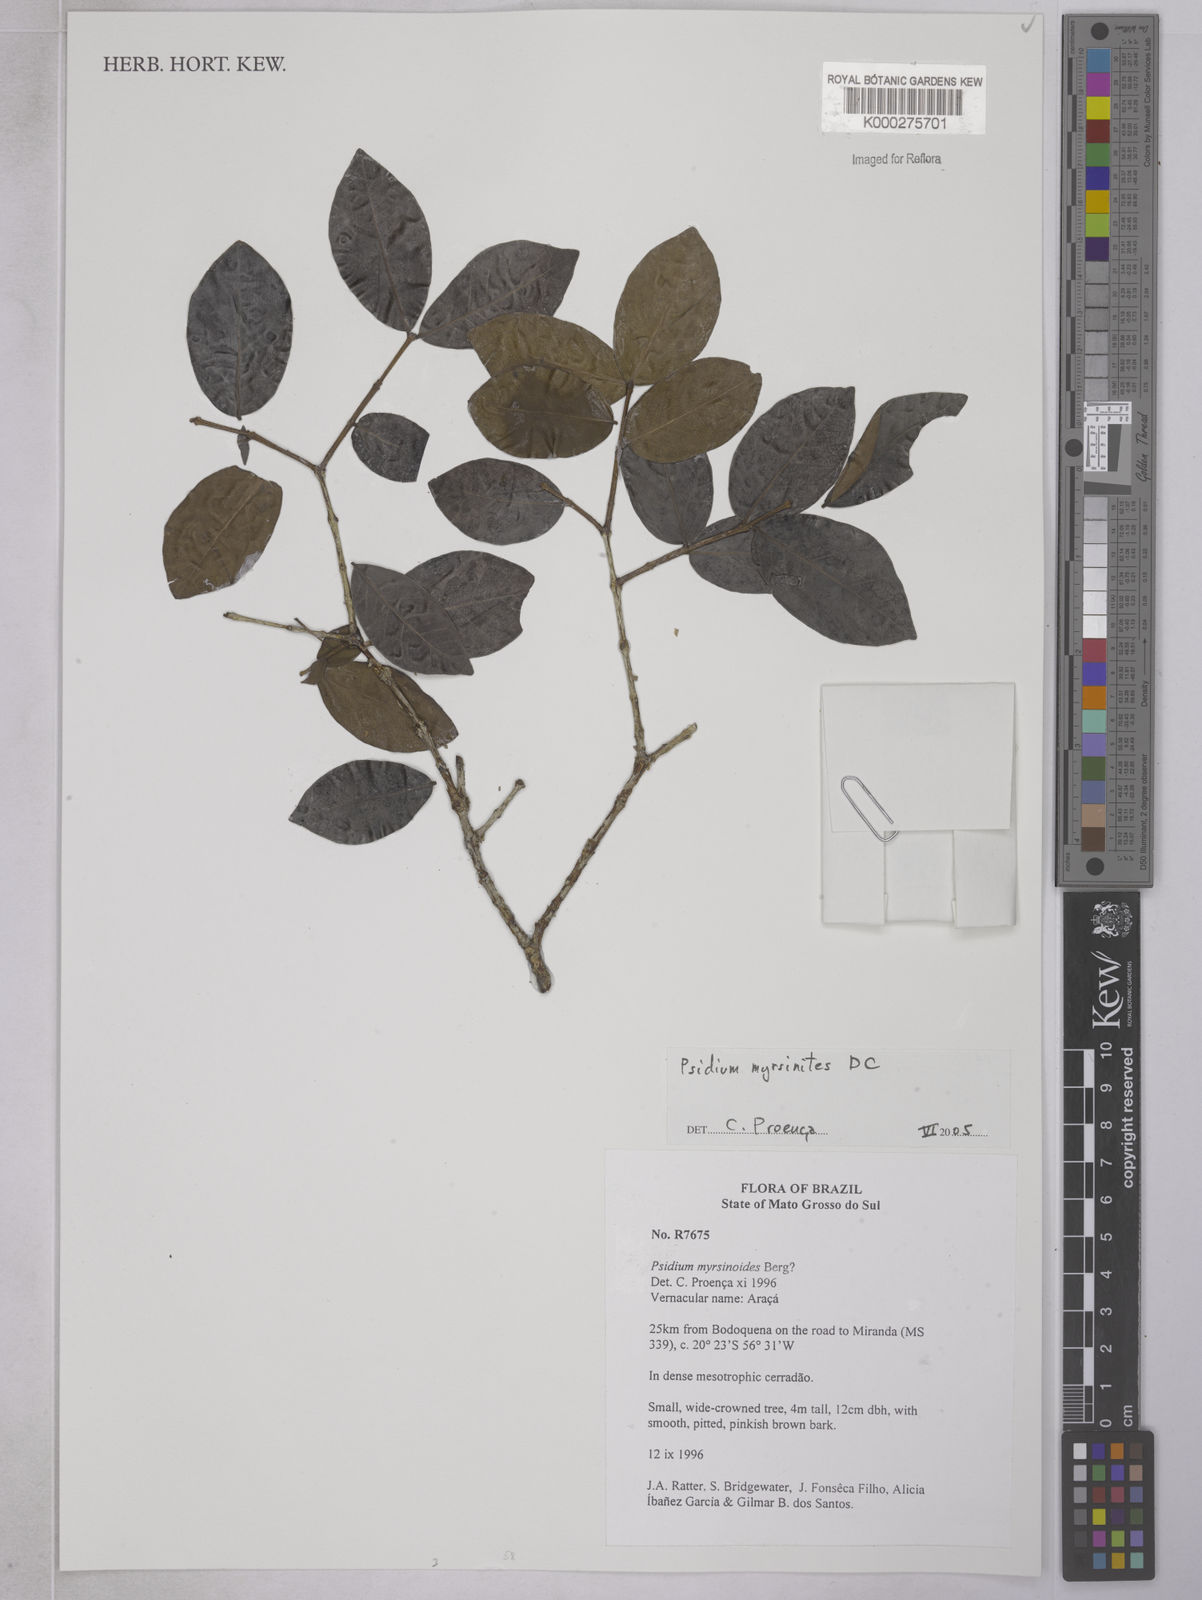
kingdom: Plantae
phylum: Tracheophyta
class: Magnoliopsida
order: Myrtales
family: Myrtaceae
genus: Psidium
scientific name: Psidium myrsinites
